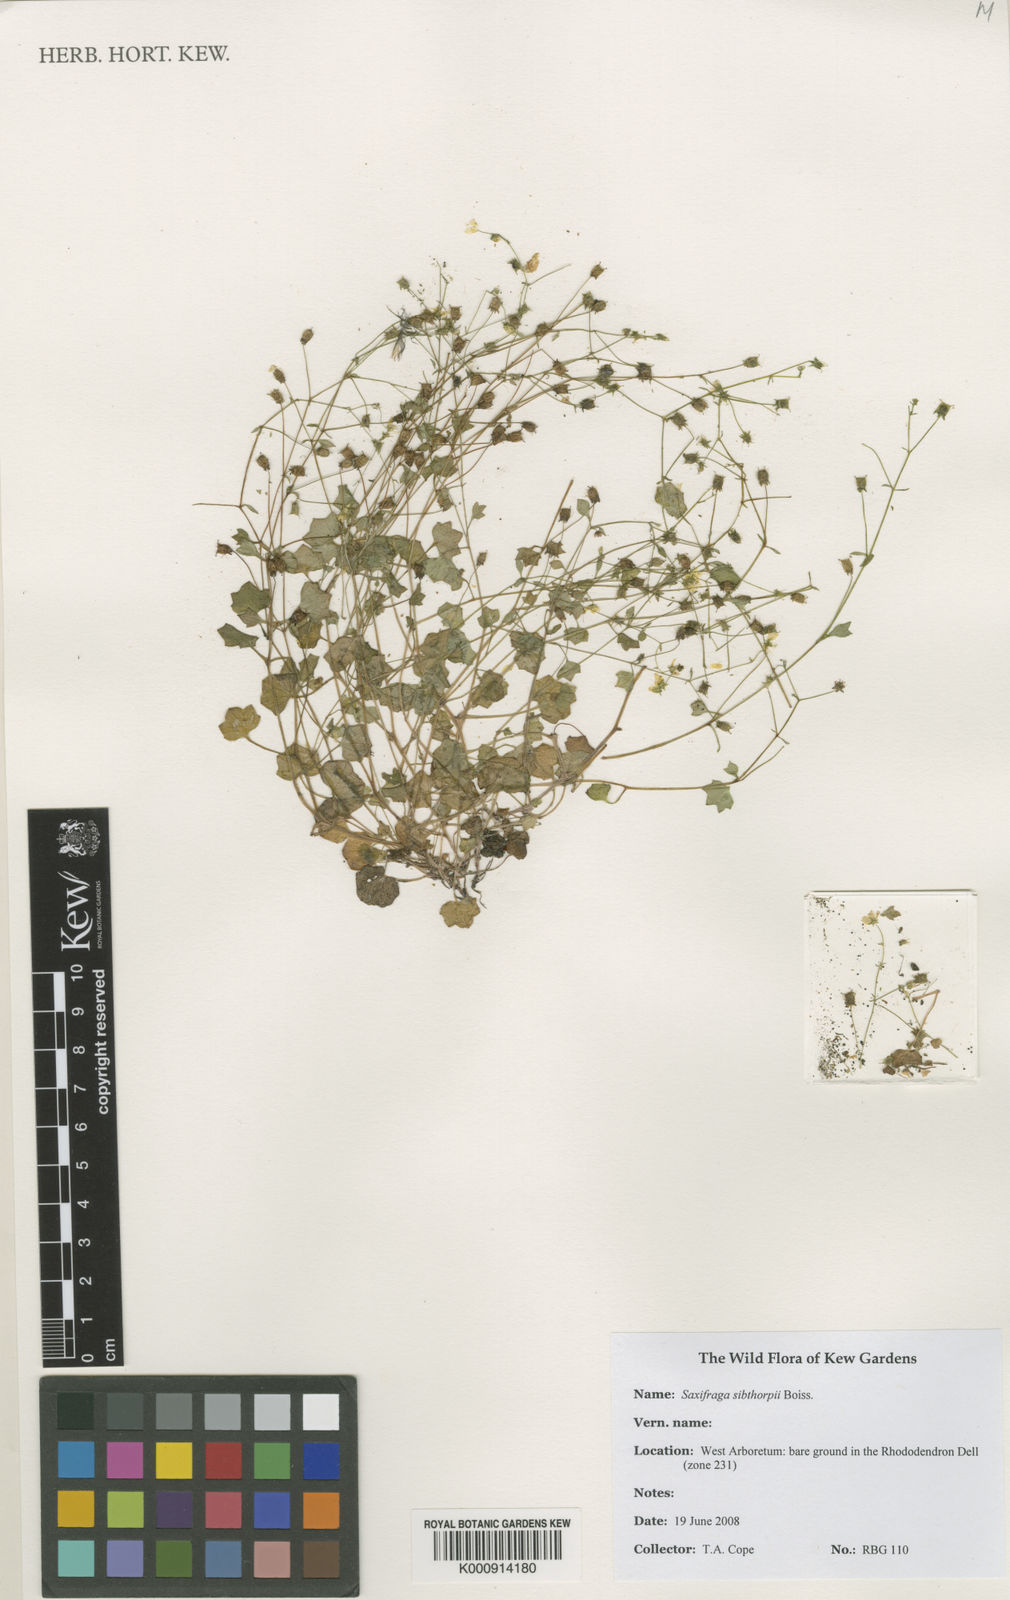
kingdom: Plantae
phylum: Tracheophyta
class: Magnoliopsida
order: Saxifragales
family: Saxifragaceae
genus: Saxifraga
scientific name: Saxifraga sibthorpii
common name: Yellow saxifrage
